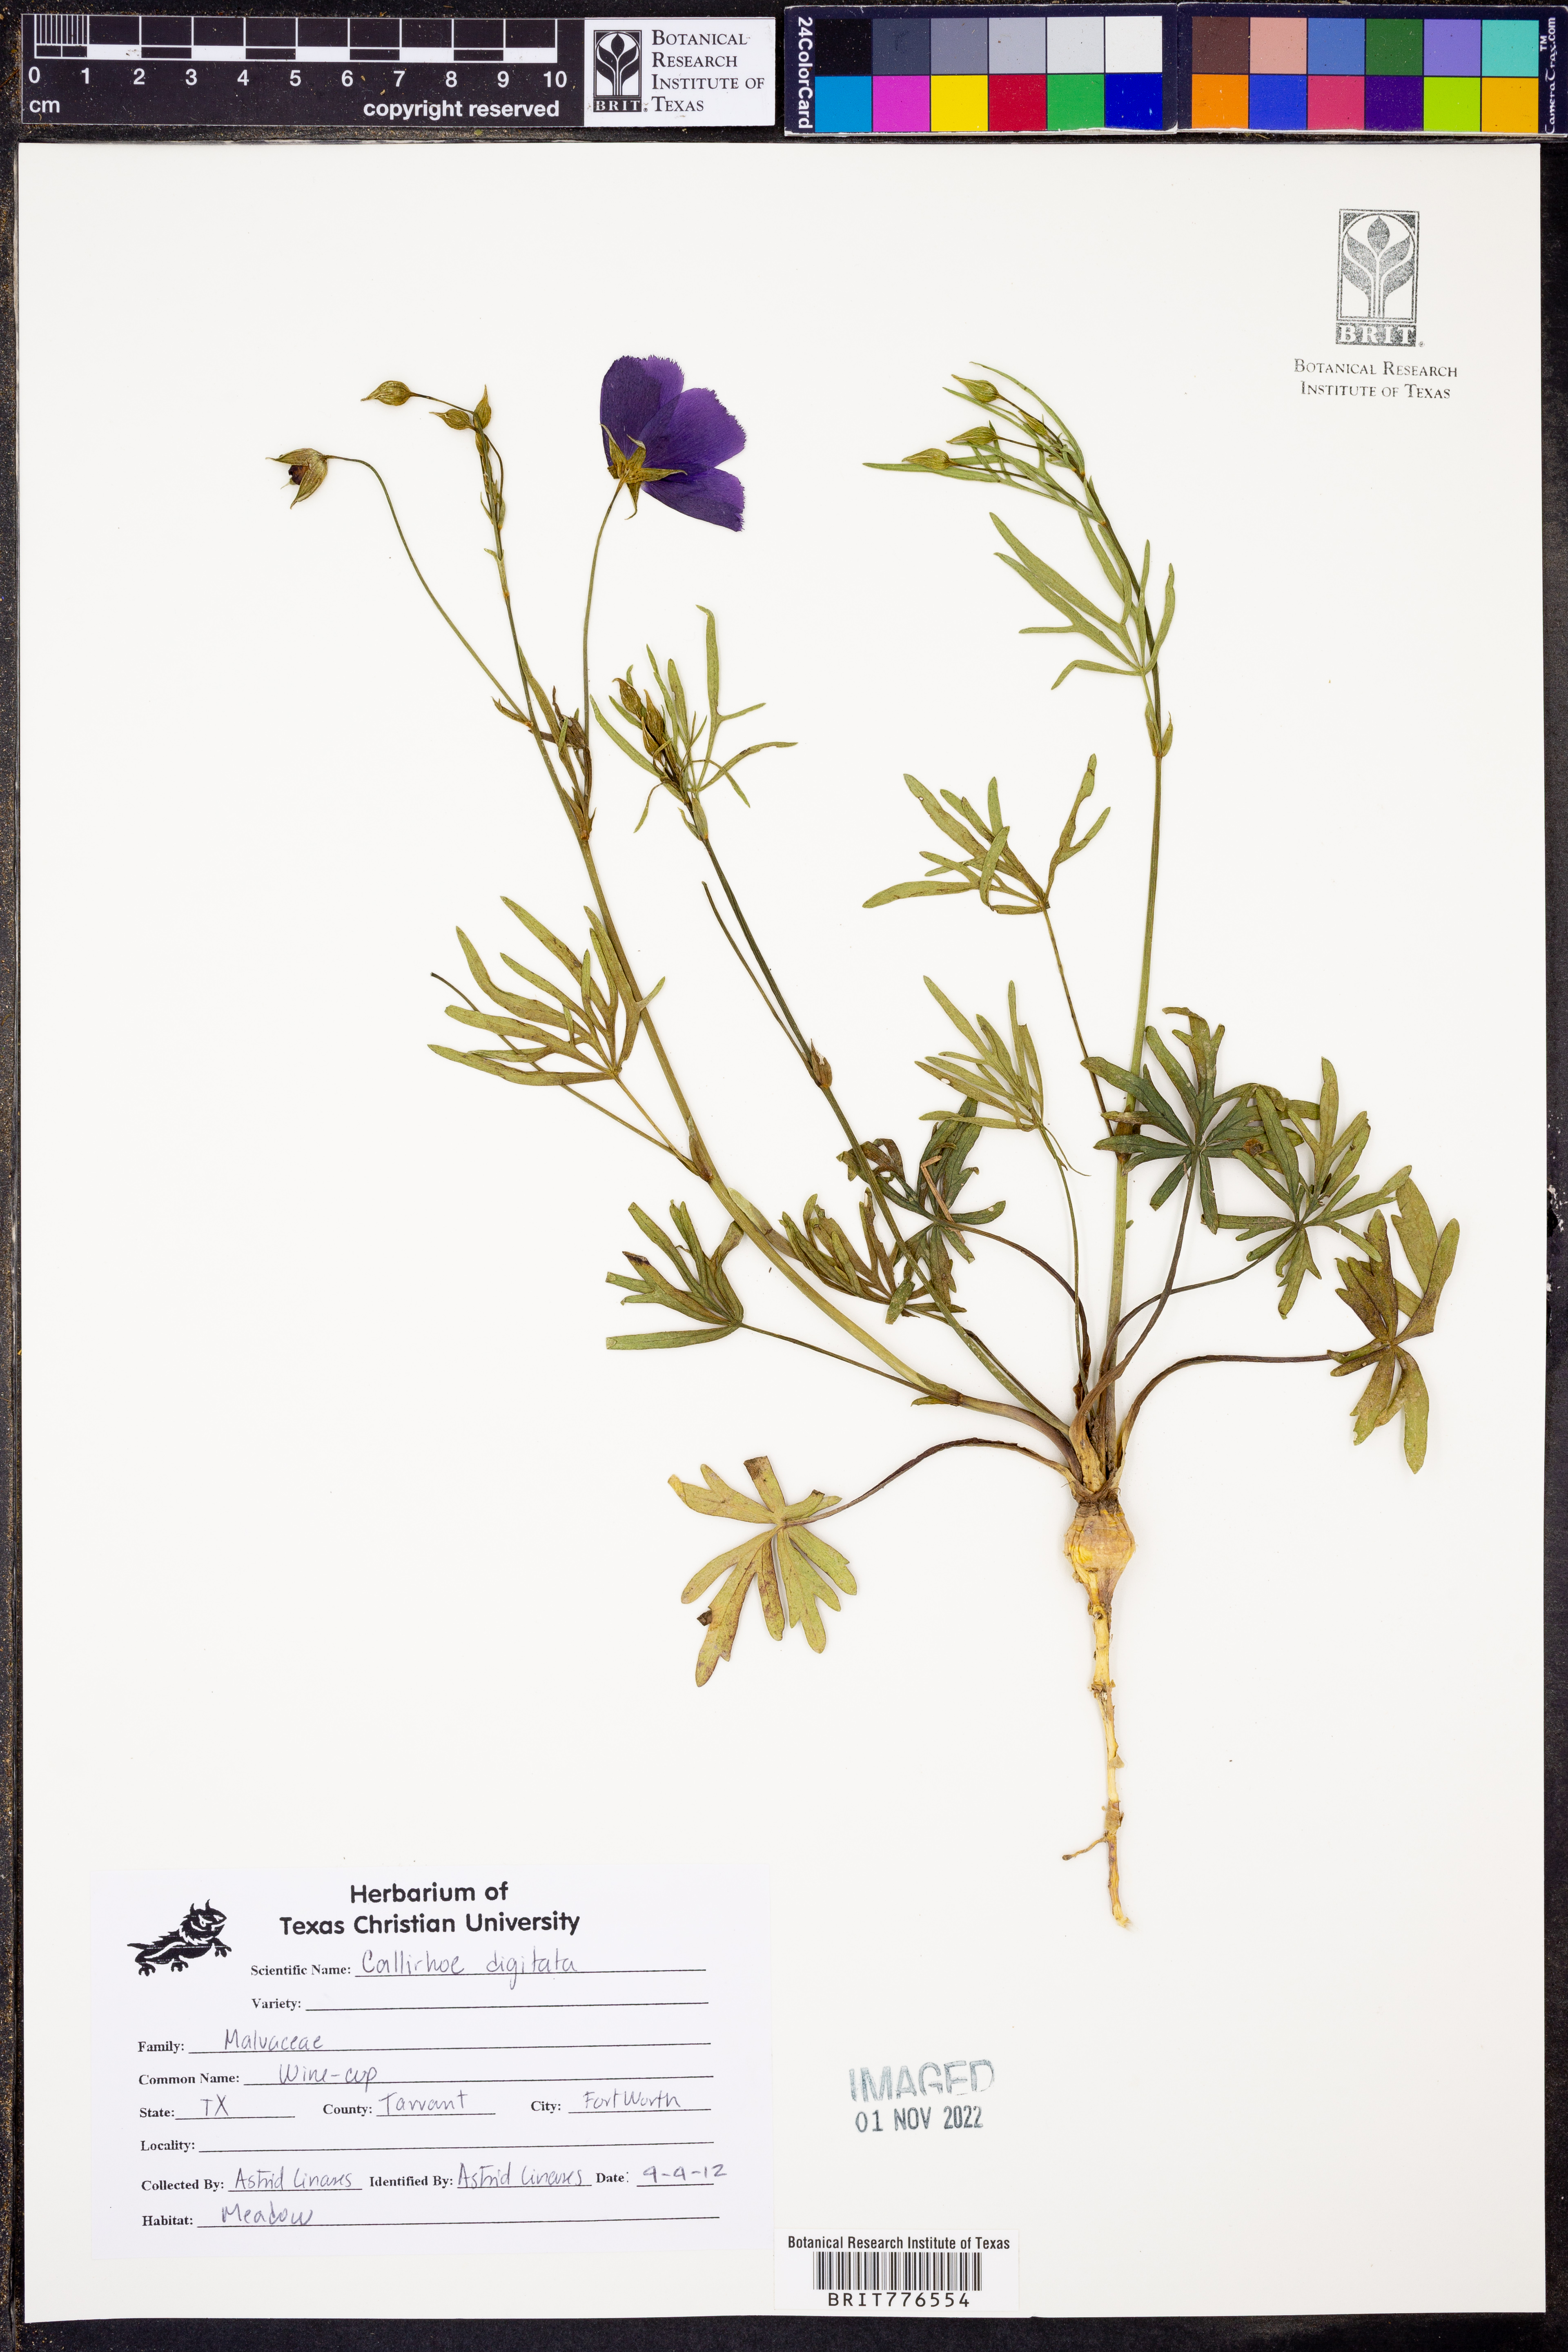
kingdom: Plantae
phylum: Tracheophyta
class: Magnoliopsida
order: Malvales
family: Malvaceae
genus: Callirhoe
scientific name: Callirhoe digitata
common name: Finger poppy-mallow
